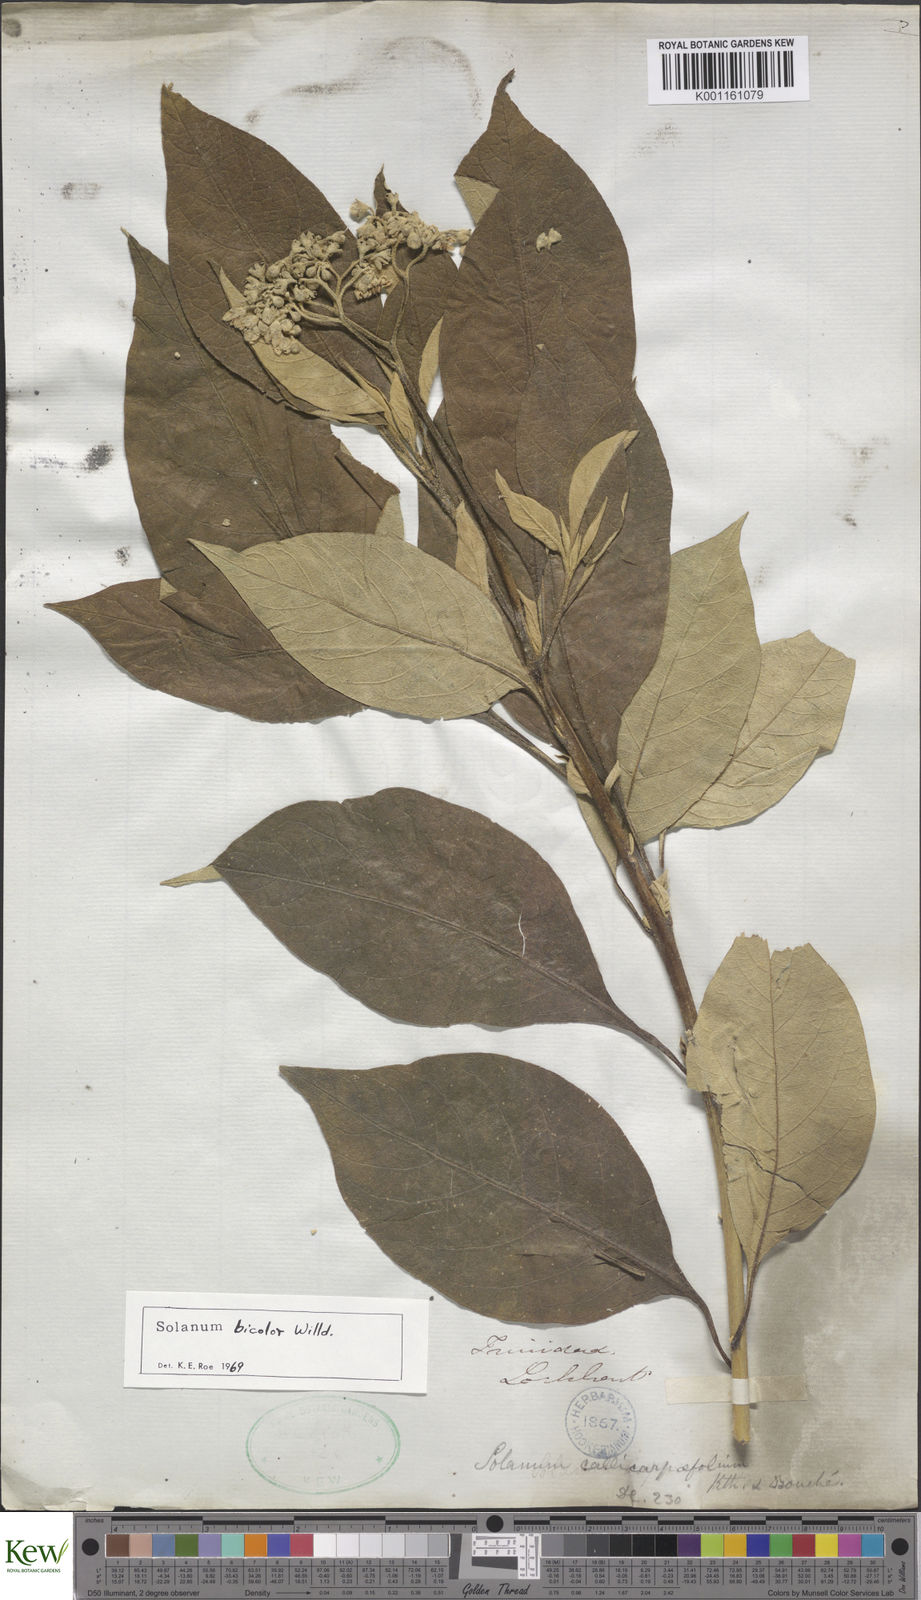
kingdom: Plantae
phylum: Tracheophyta
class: Magnoliopsida
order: Solanales
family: Solanaceae
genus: Solanum
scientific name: Solanum bicolor
